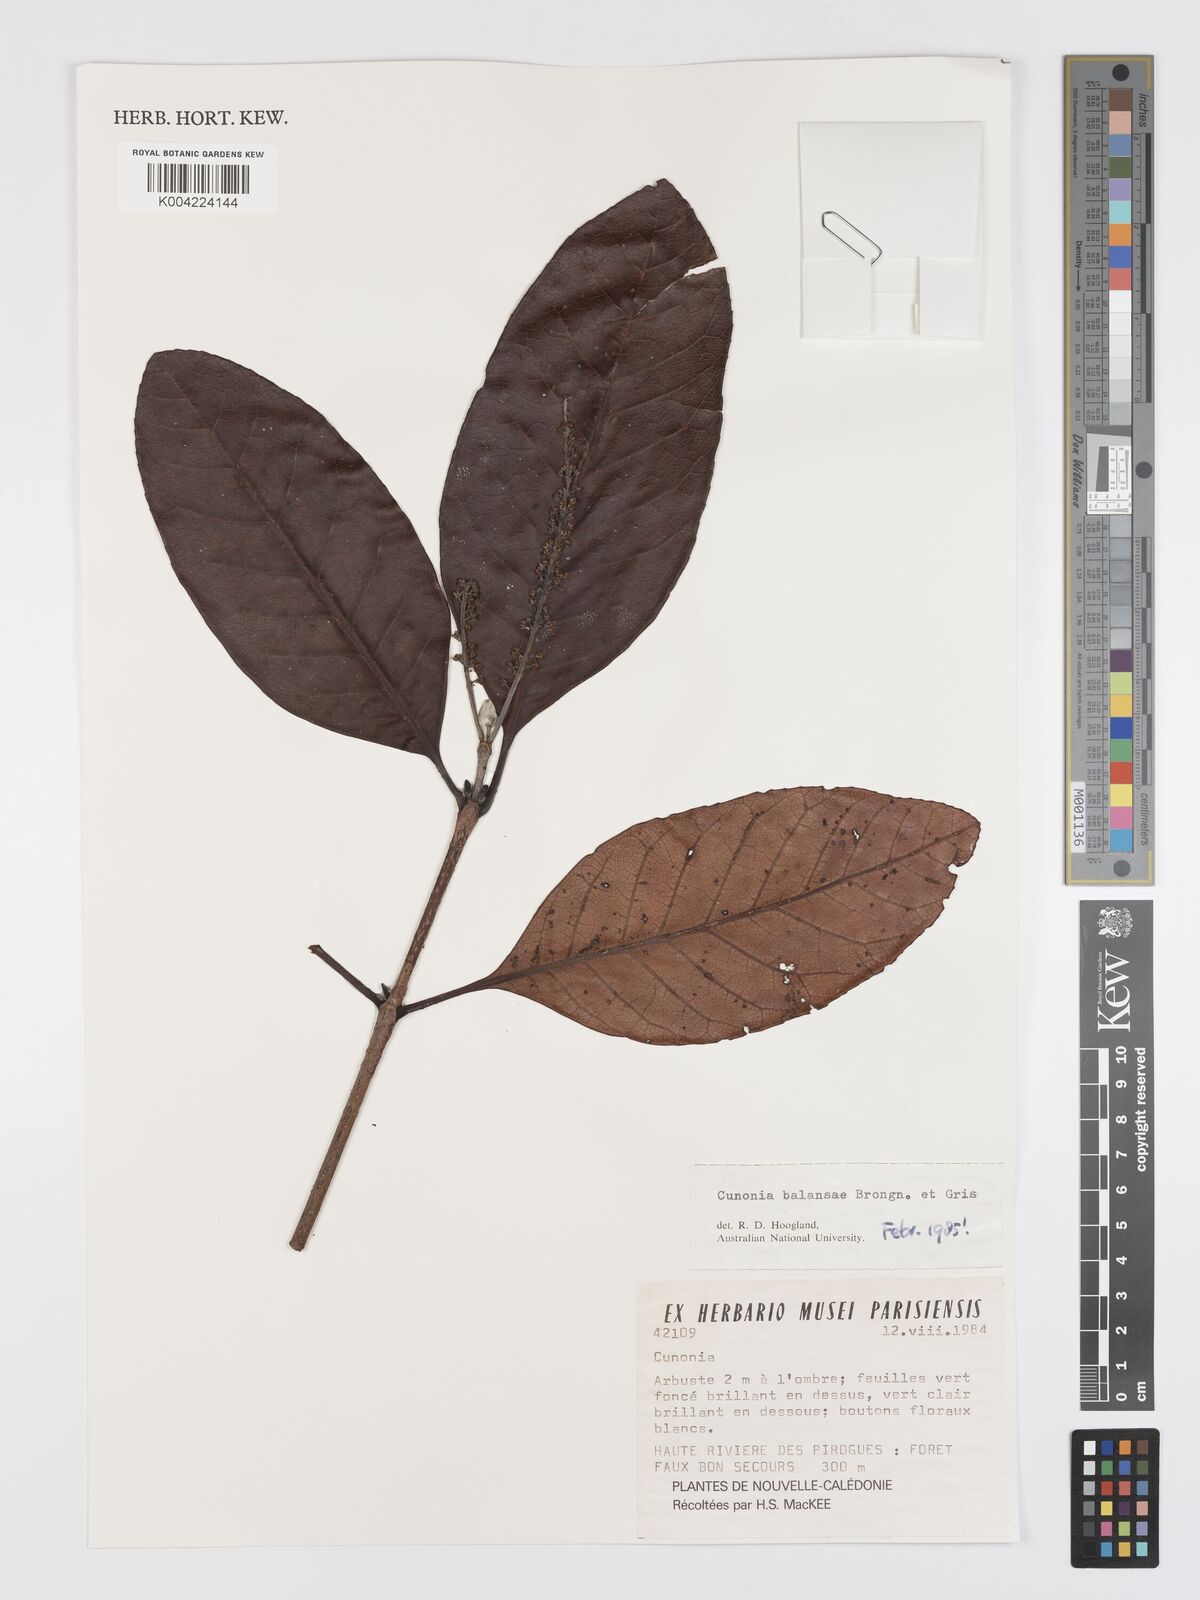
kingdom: Plantae
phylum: Tracheophyta
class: Magnoliopsida
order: Oxalidales
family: Cunoniaceae
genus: Cunonia
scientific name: Cunonia balansae
